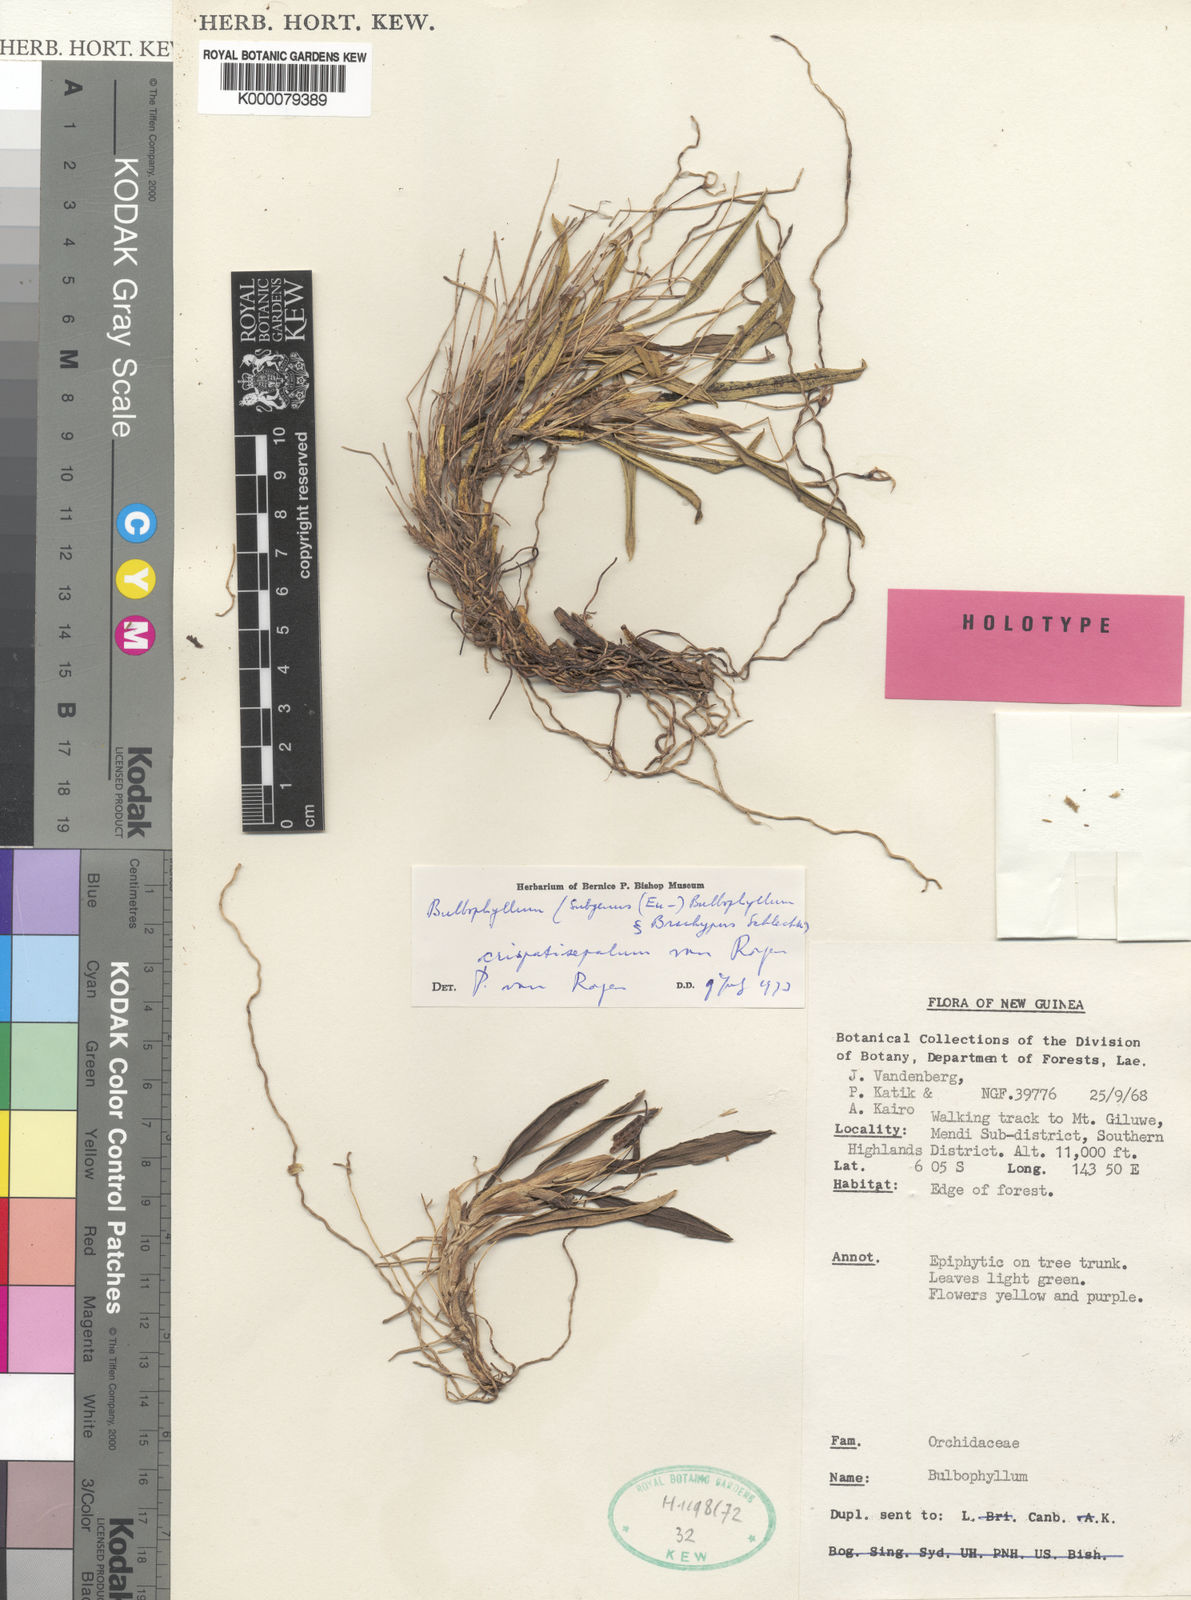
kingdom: Plantae
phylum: Tracheophyta
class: Liliopsida
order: Asparagales
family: Orchidaceae
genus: Bulbophyllum
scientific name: Bulbophyllum rubipetalum
